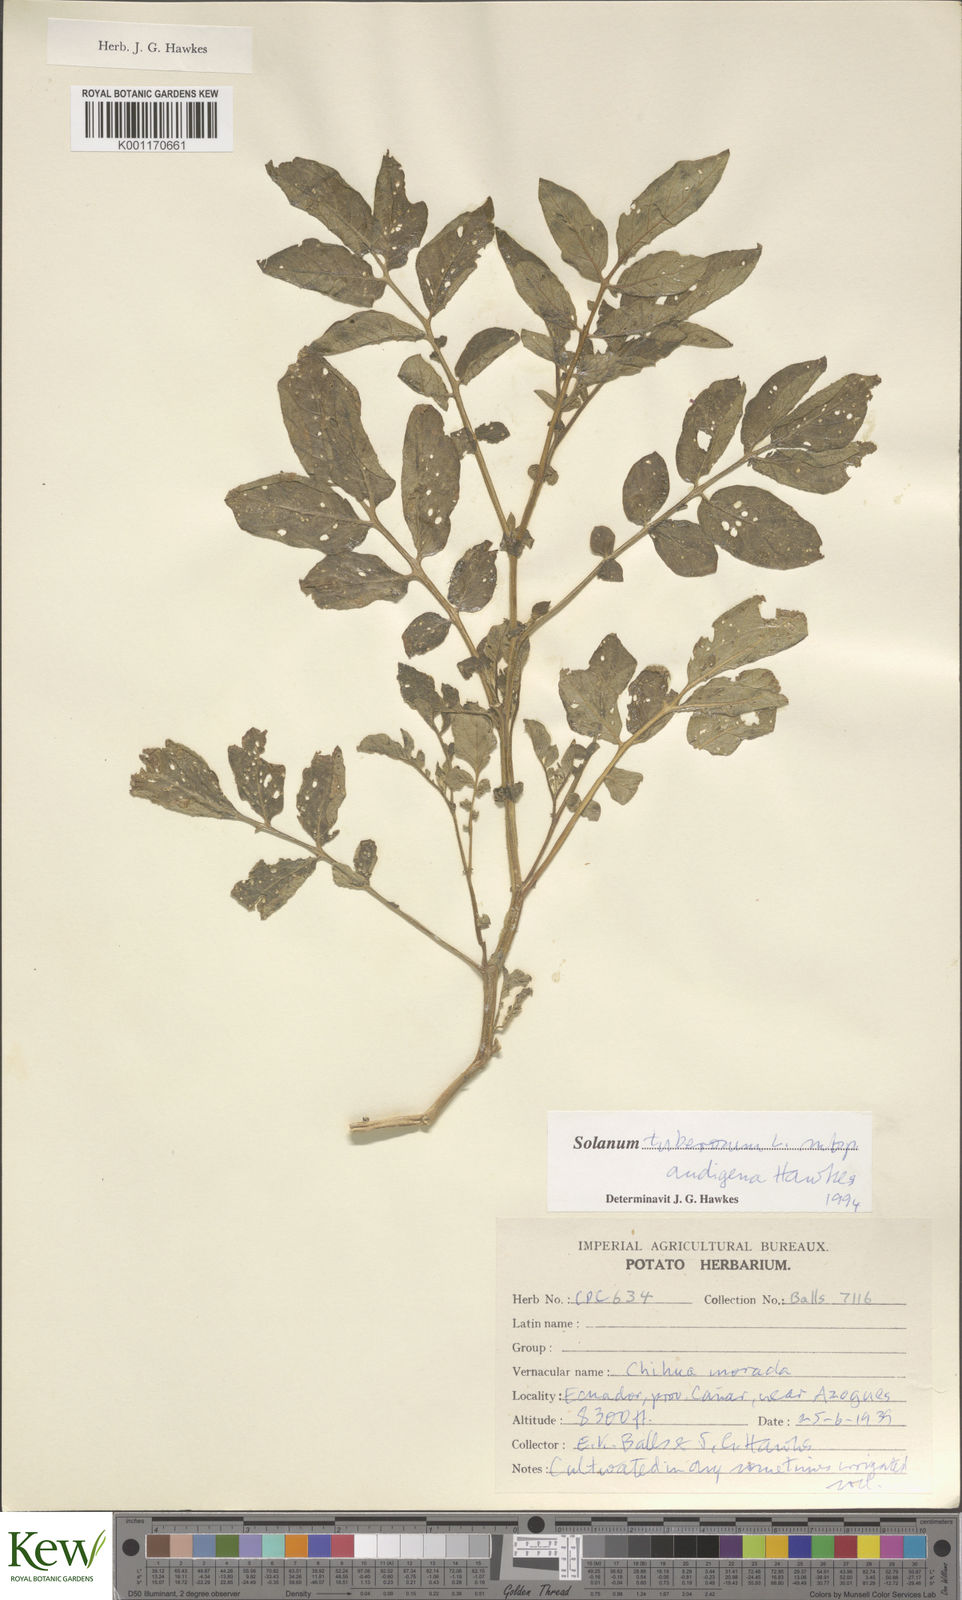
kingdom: Plantae
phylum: Tracheophyta
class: Magnoliopsida
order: Solanales
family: Solanaceae
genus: Solanum
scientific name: Solanum tuberosum
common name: Potato
